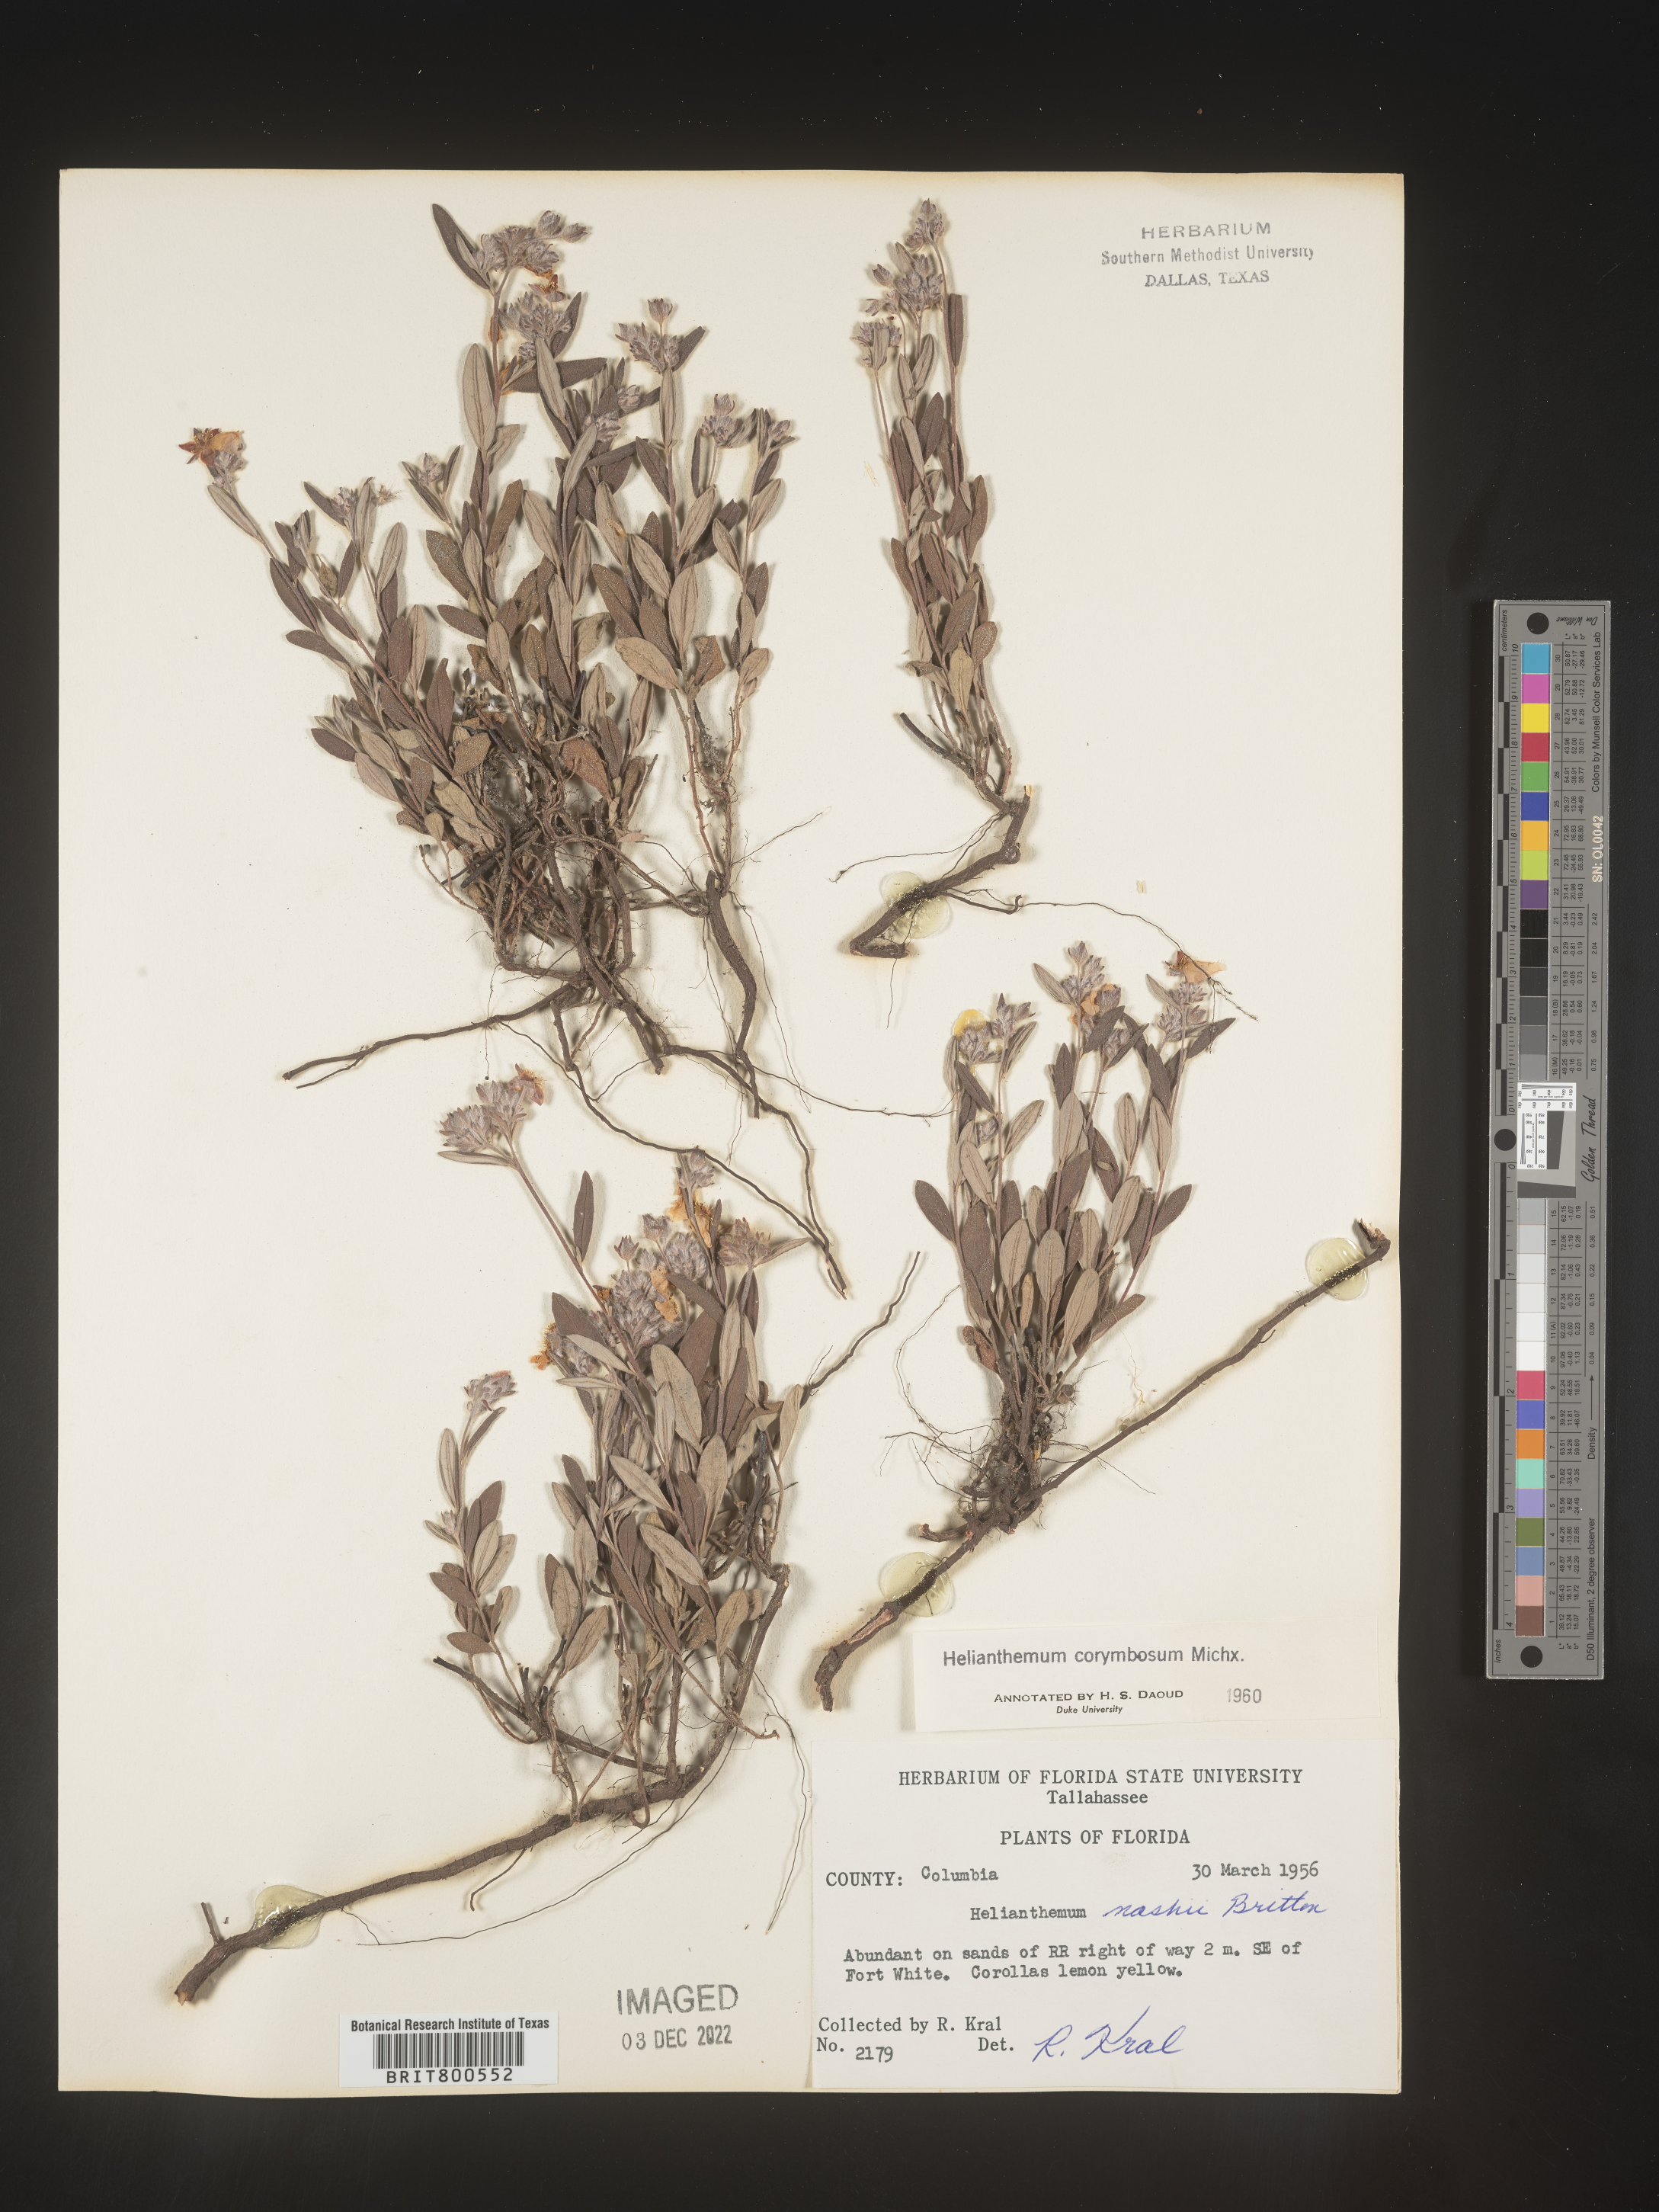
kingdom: Plantae
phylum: Tracheophyta
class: Magnoliopsida
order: Malvales
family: Cistaceae
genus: Crocanthemum
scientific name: Crocanthemum corymbosum
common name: Pinebarren sun-rose
